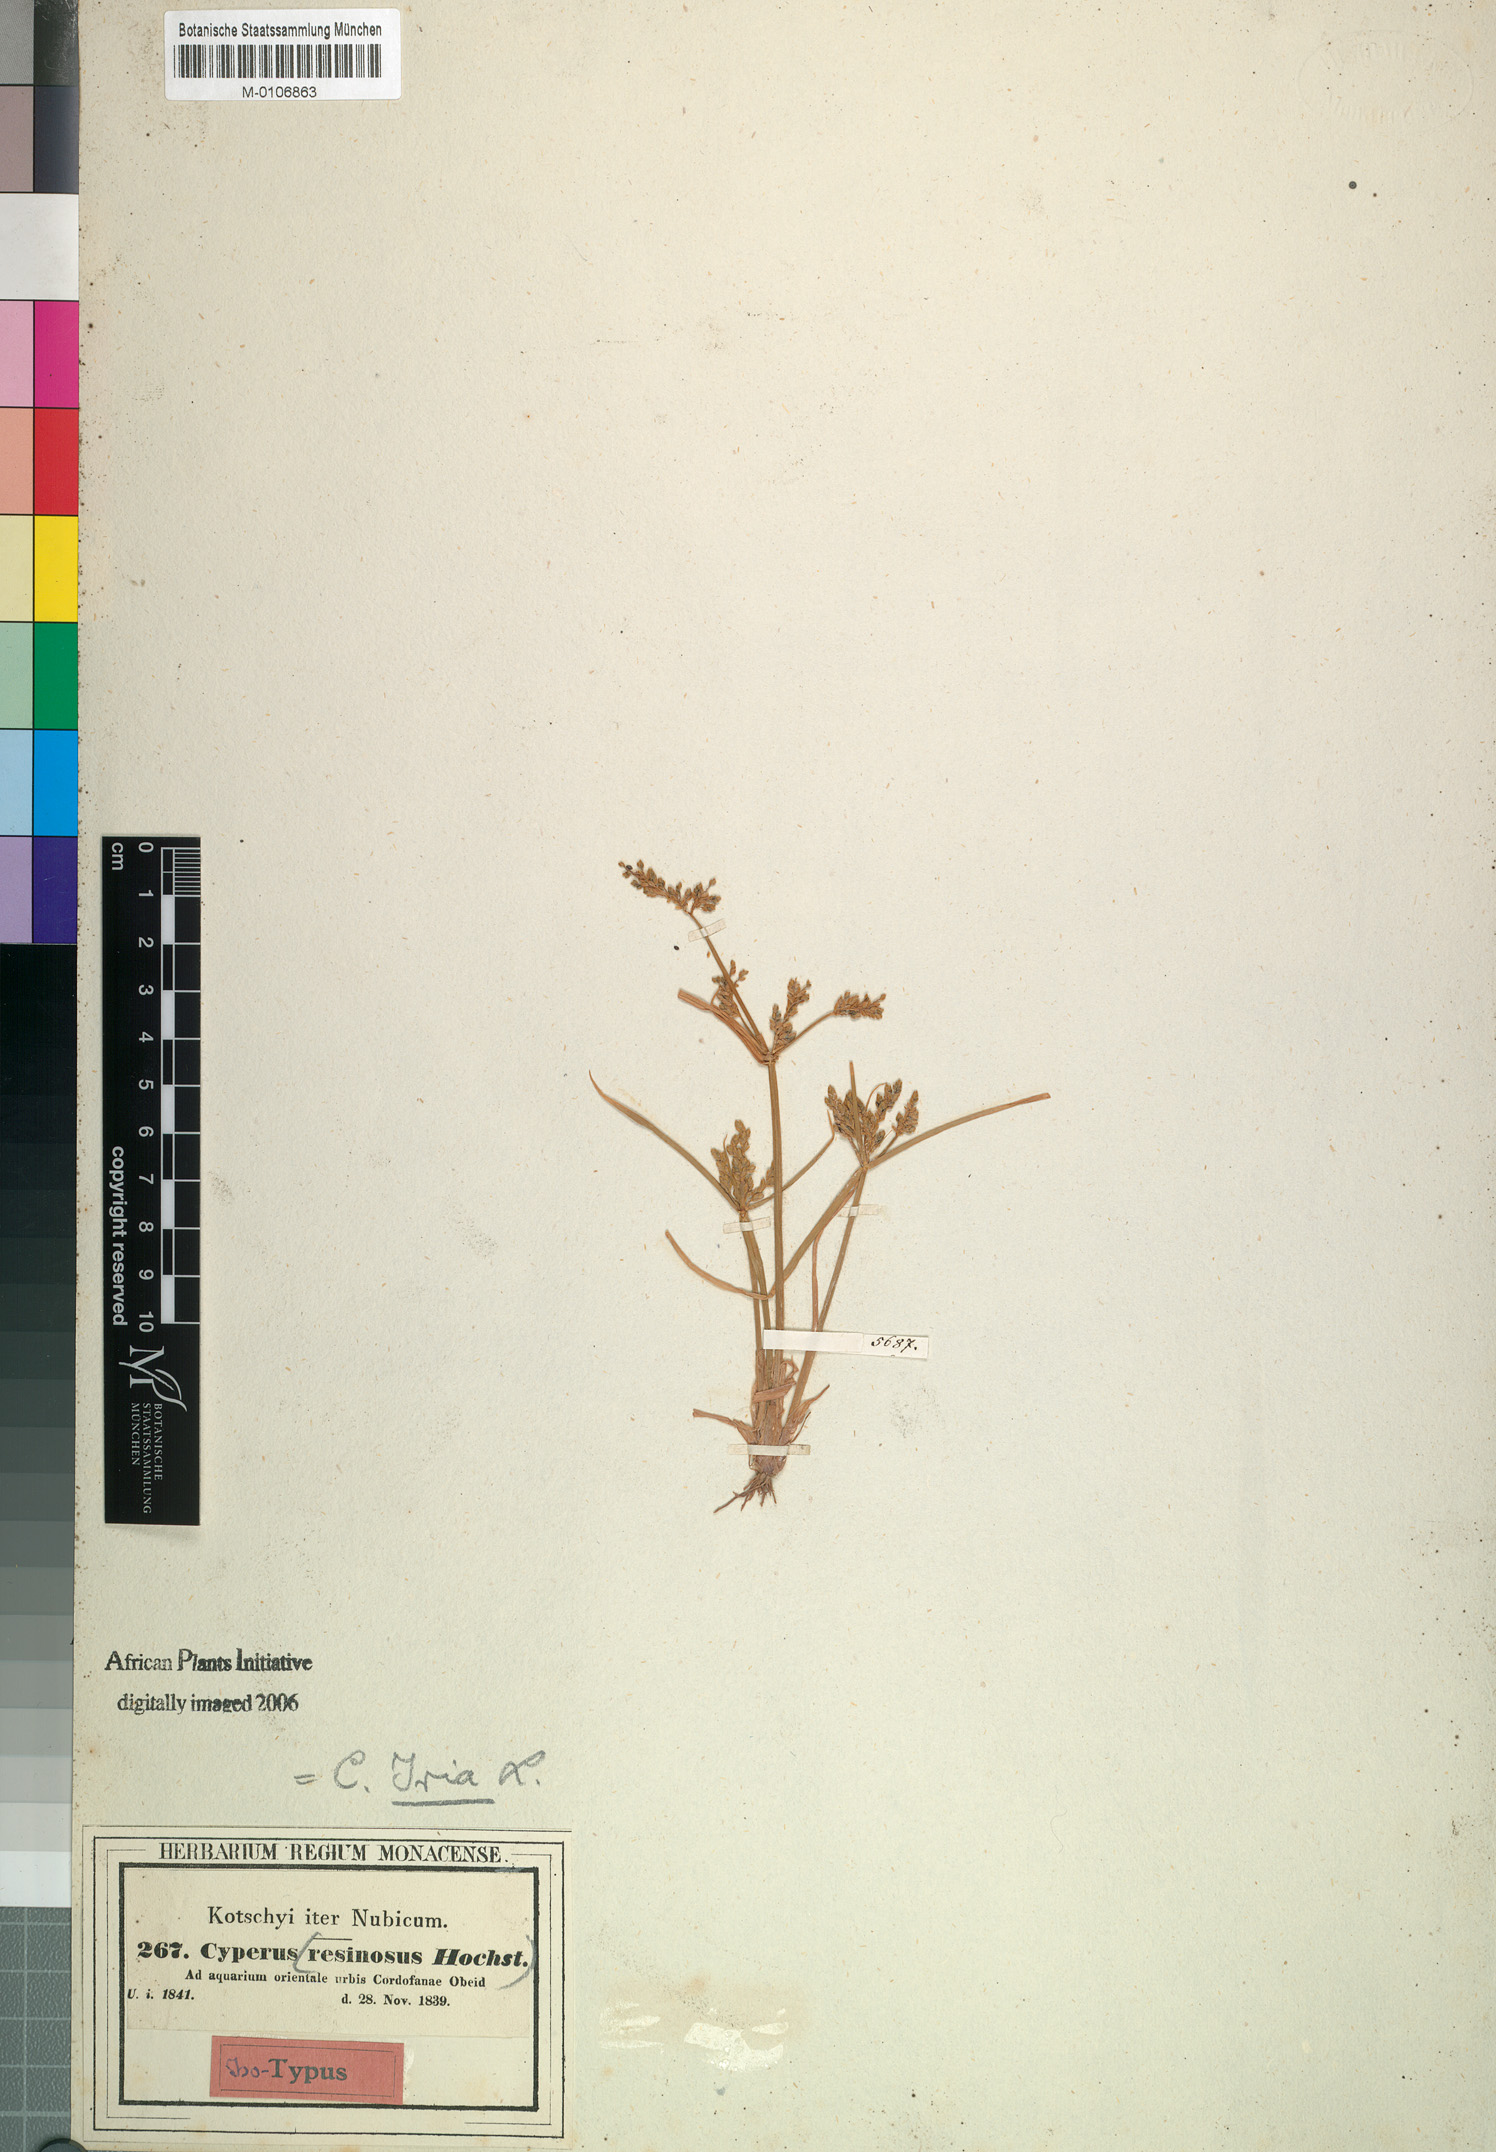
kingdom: Plantae
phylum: Tracheophyta
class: Liliopsida
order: Poales
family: Cyperaceae
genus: Cyperus
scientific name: Cyperus iria
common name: Ricefield flatsedge
